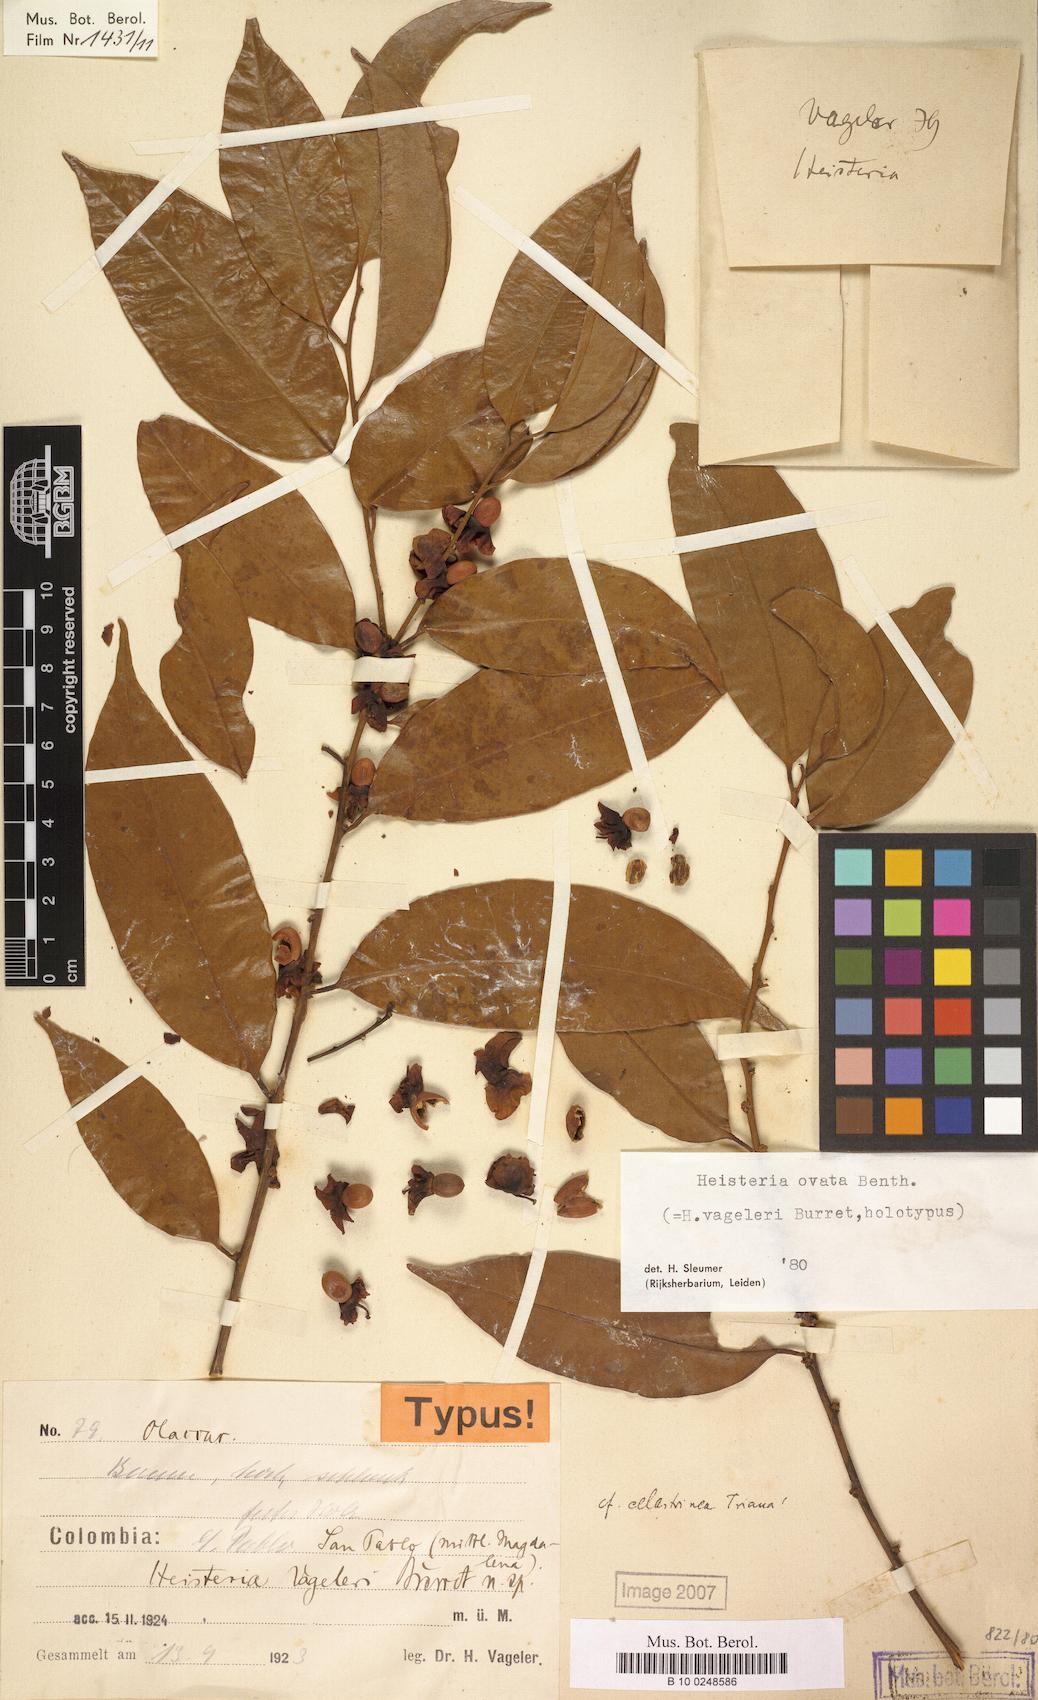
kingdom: Plantae
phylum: Tracheophyta
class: Magnoliopsida
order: Santalales
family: Erythropalaceae
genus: Heisteria
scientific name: Heisteria ovata
